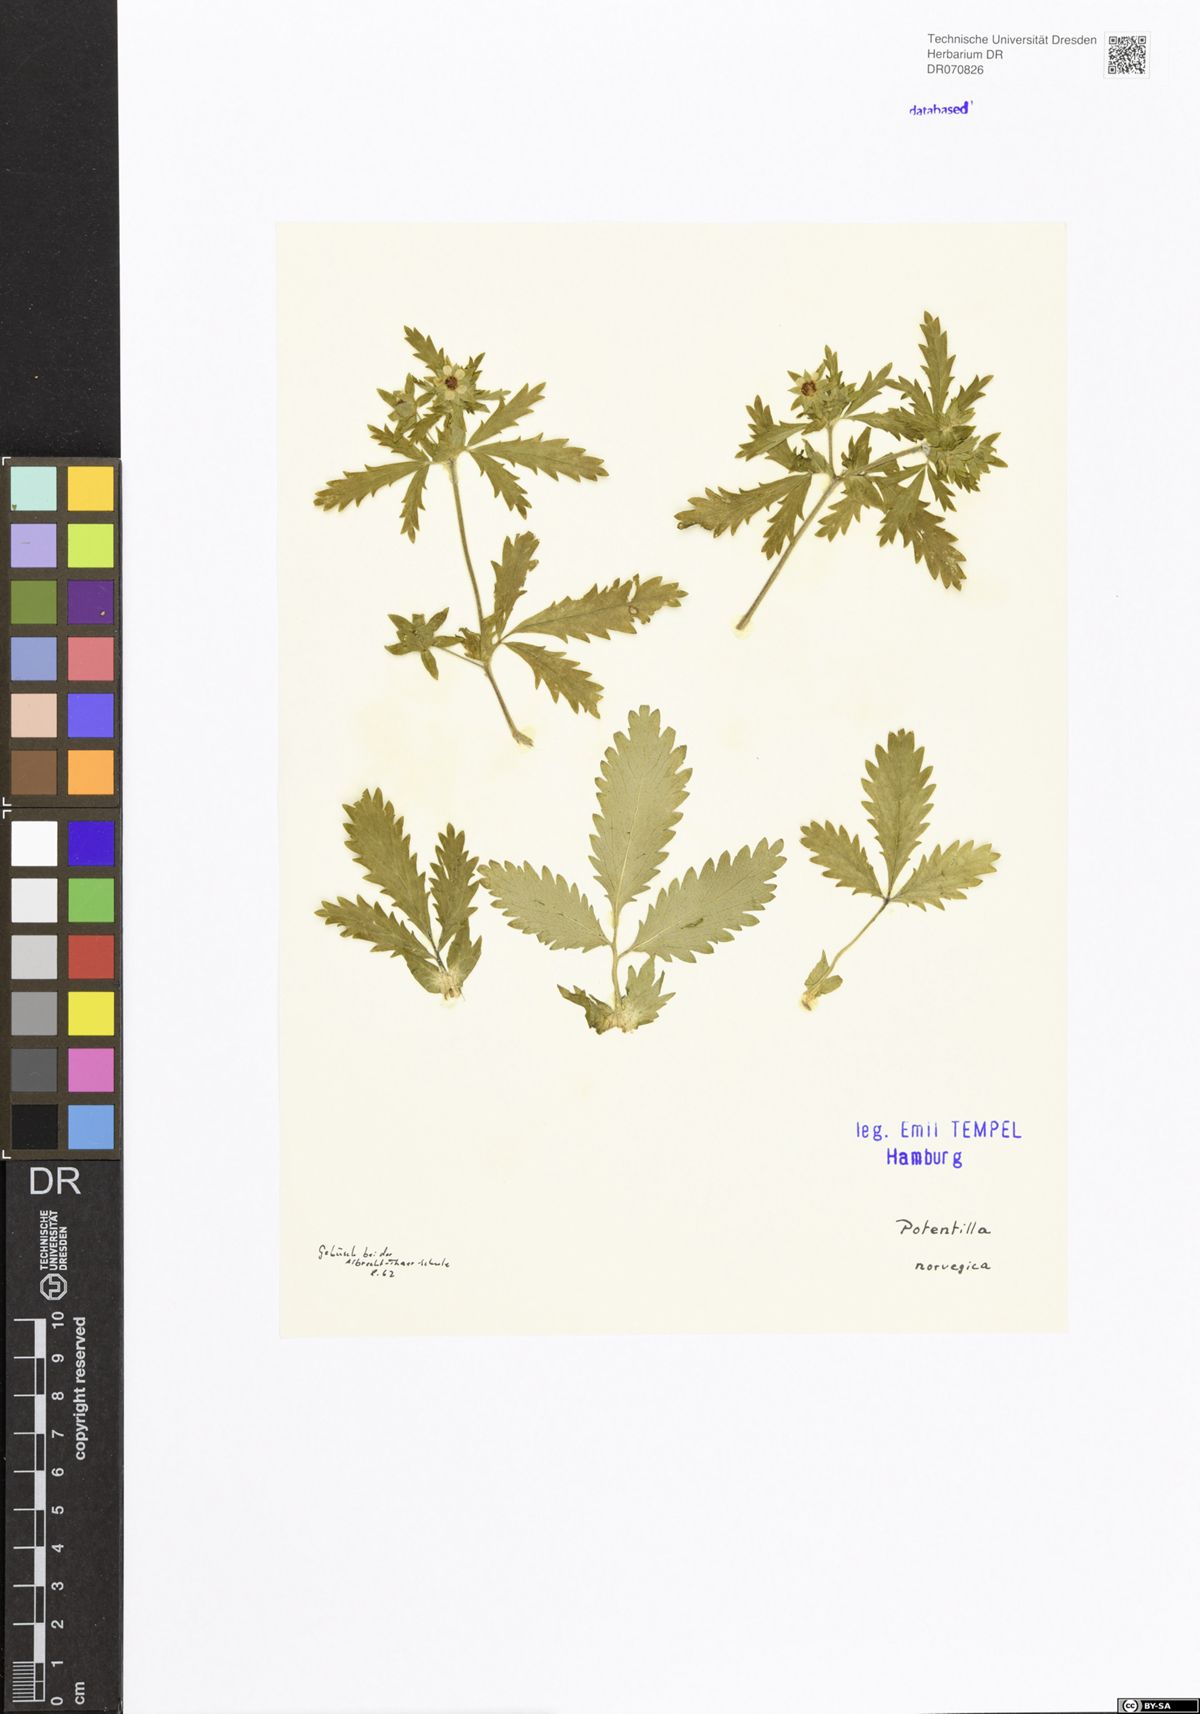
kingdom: Plantae
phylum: Tracheophyta
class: Magnoliopsida
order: Rosales
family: Rosaceae
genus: Potentilla
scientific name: Potentilla norvegica
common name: Ternate-leaved cinquefoil
